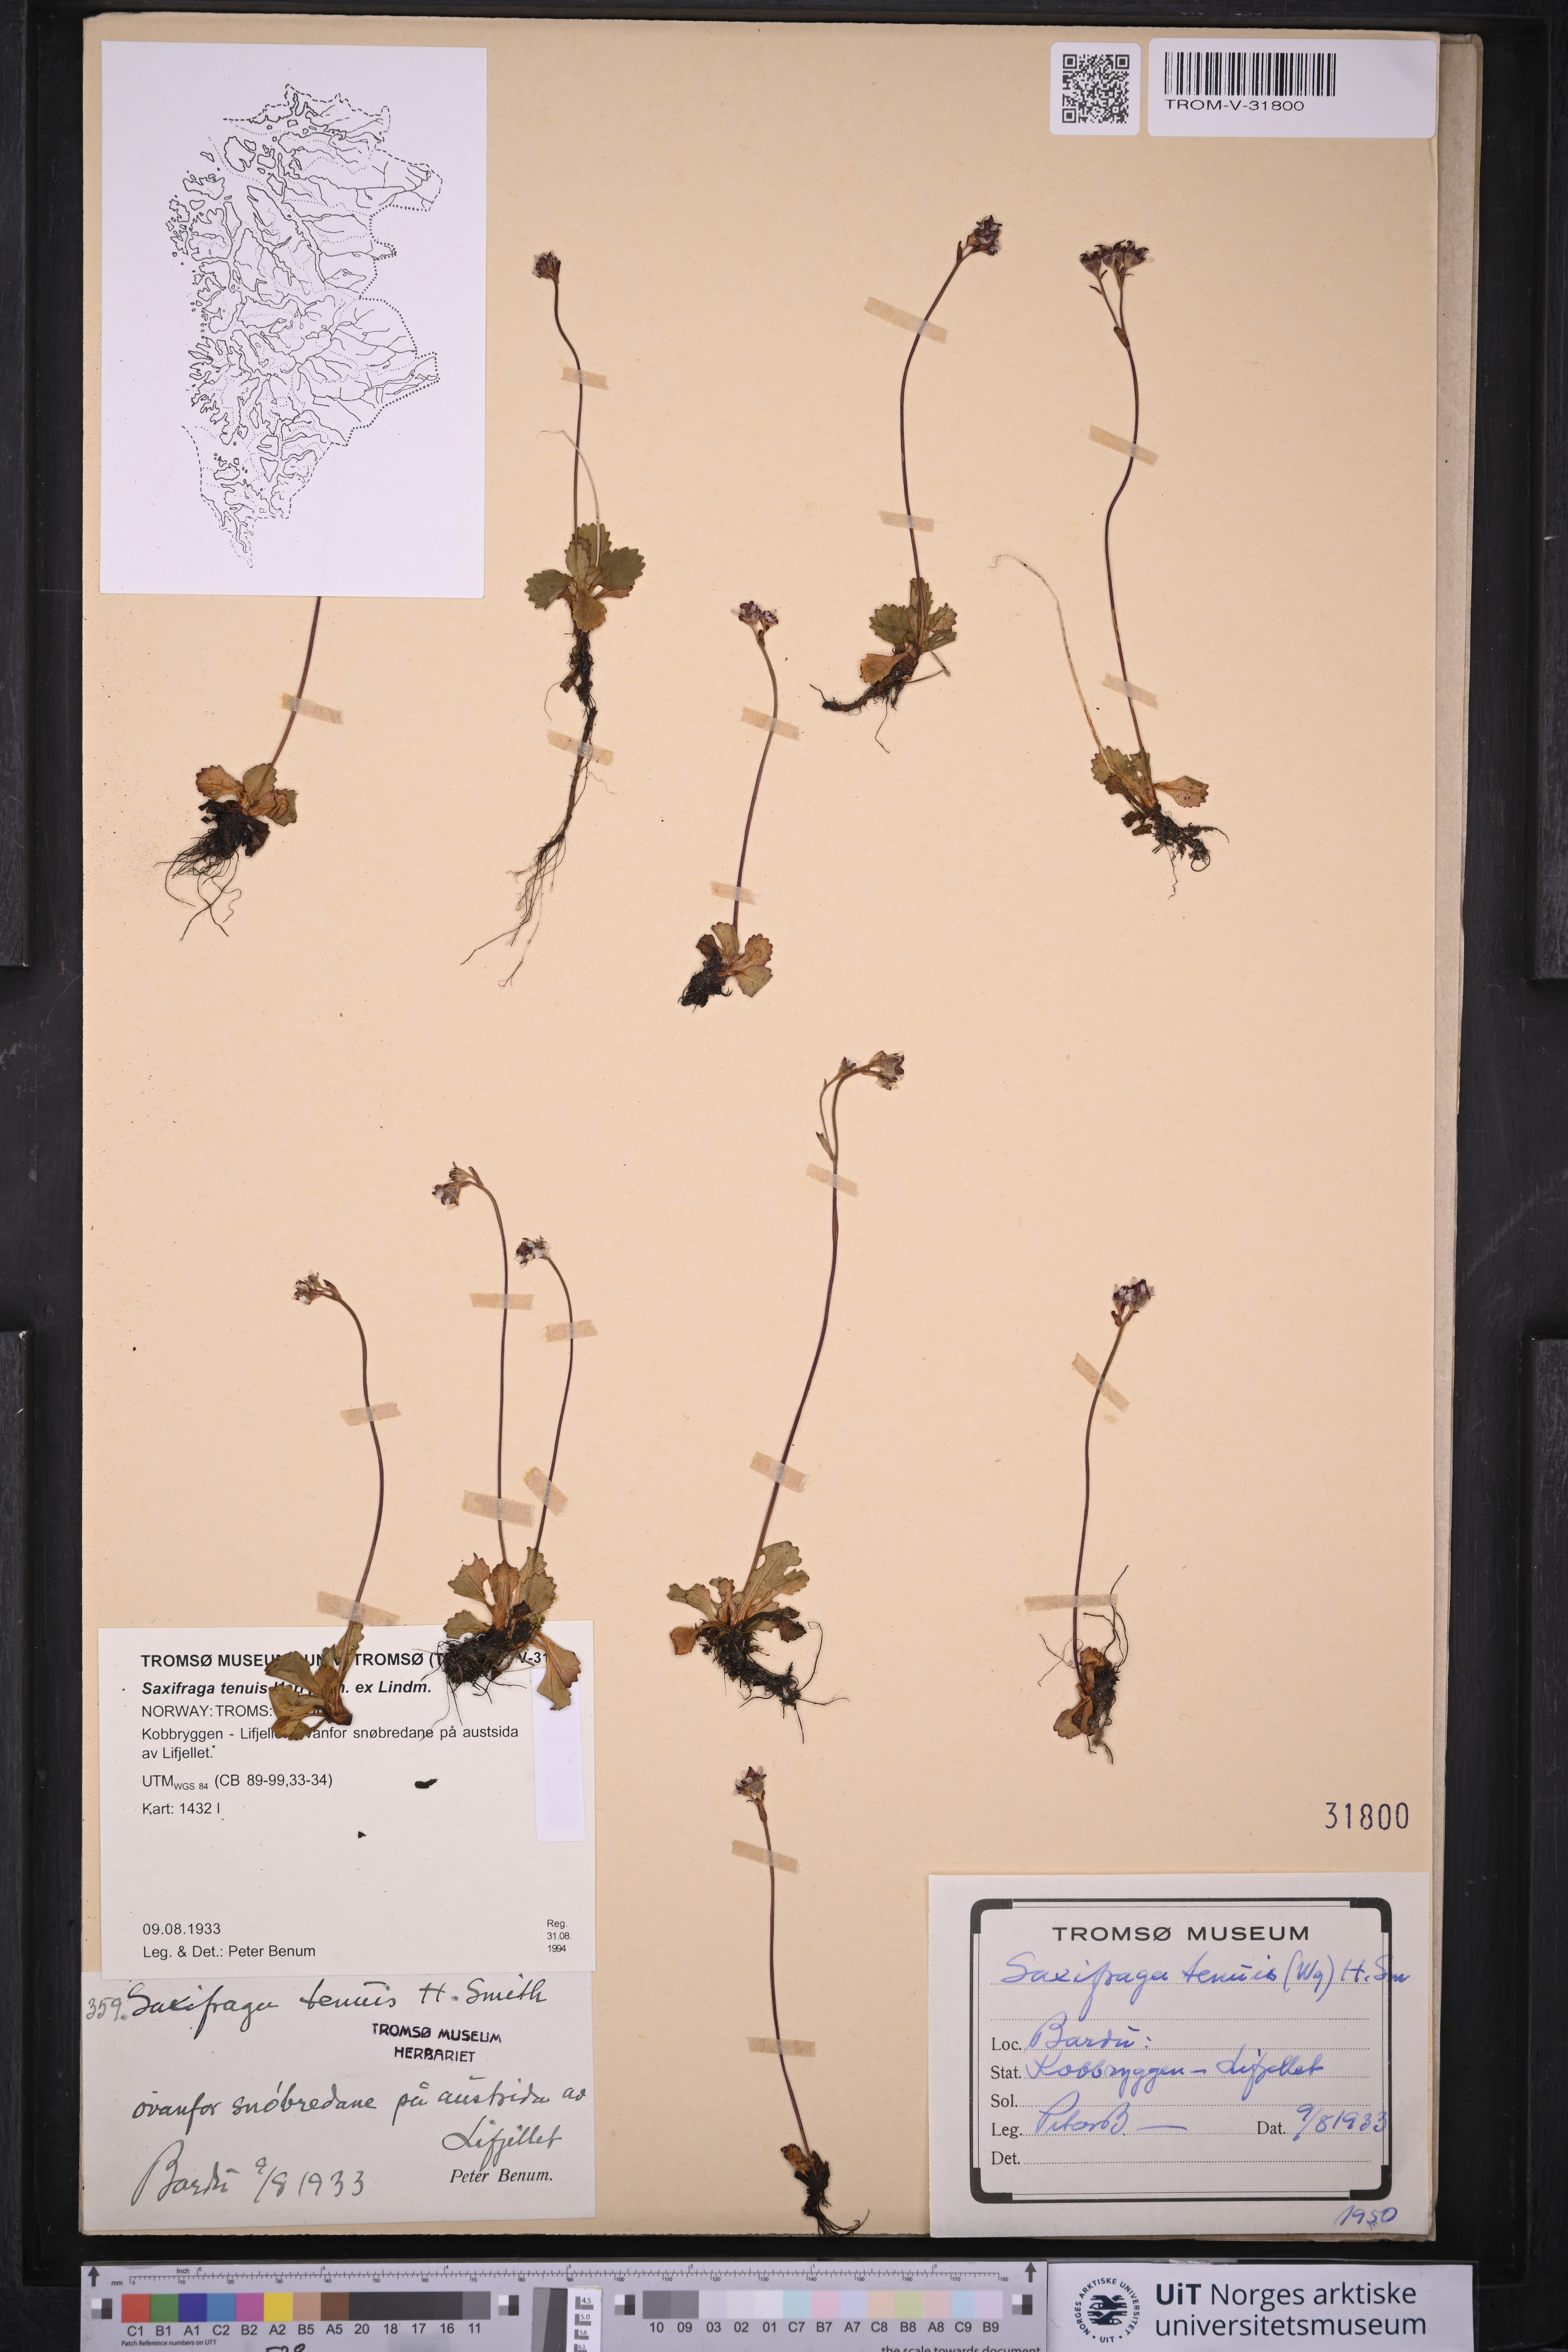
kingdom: Plantae
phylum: Tracheophyta
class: Magnoliopsida
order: Saxifragales
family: Saxifragaceae
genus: Micranthes
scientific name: Micranthes tenuis
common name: Ottertail pass saxifrage
